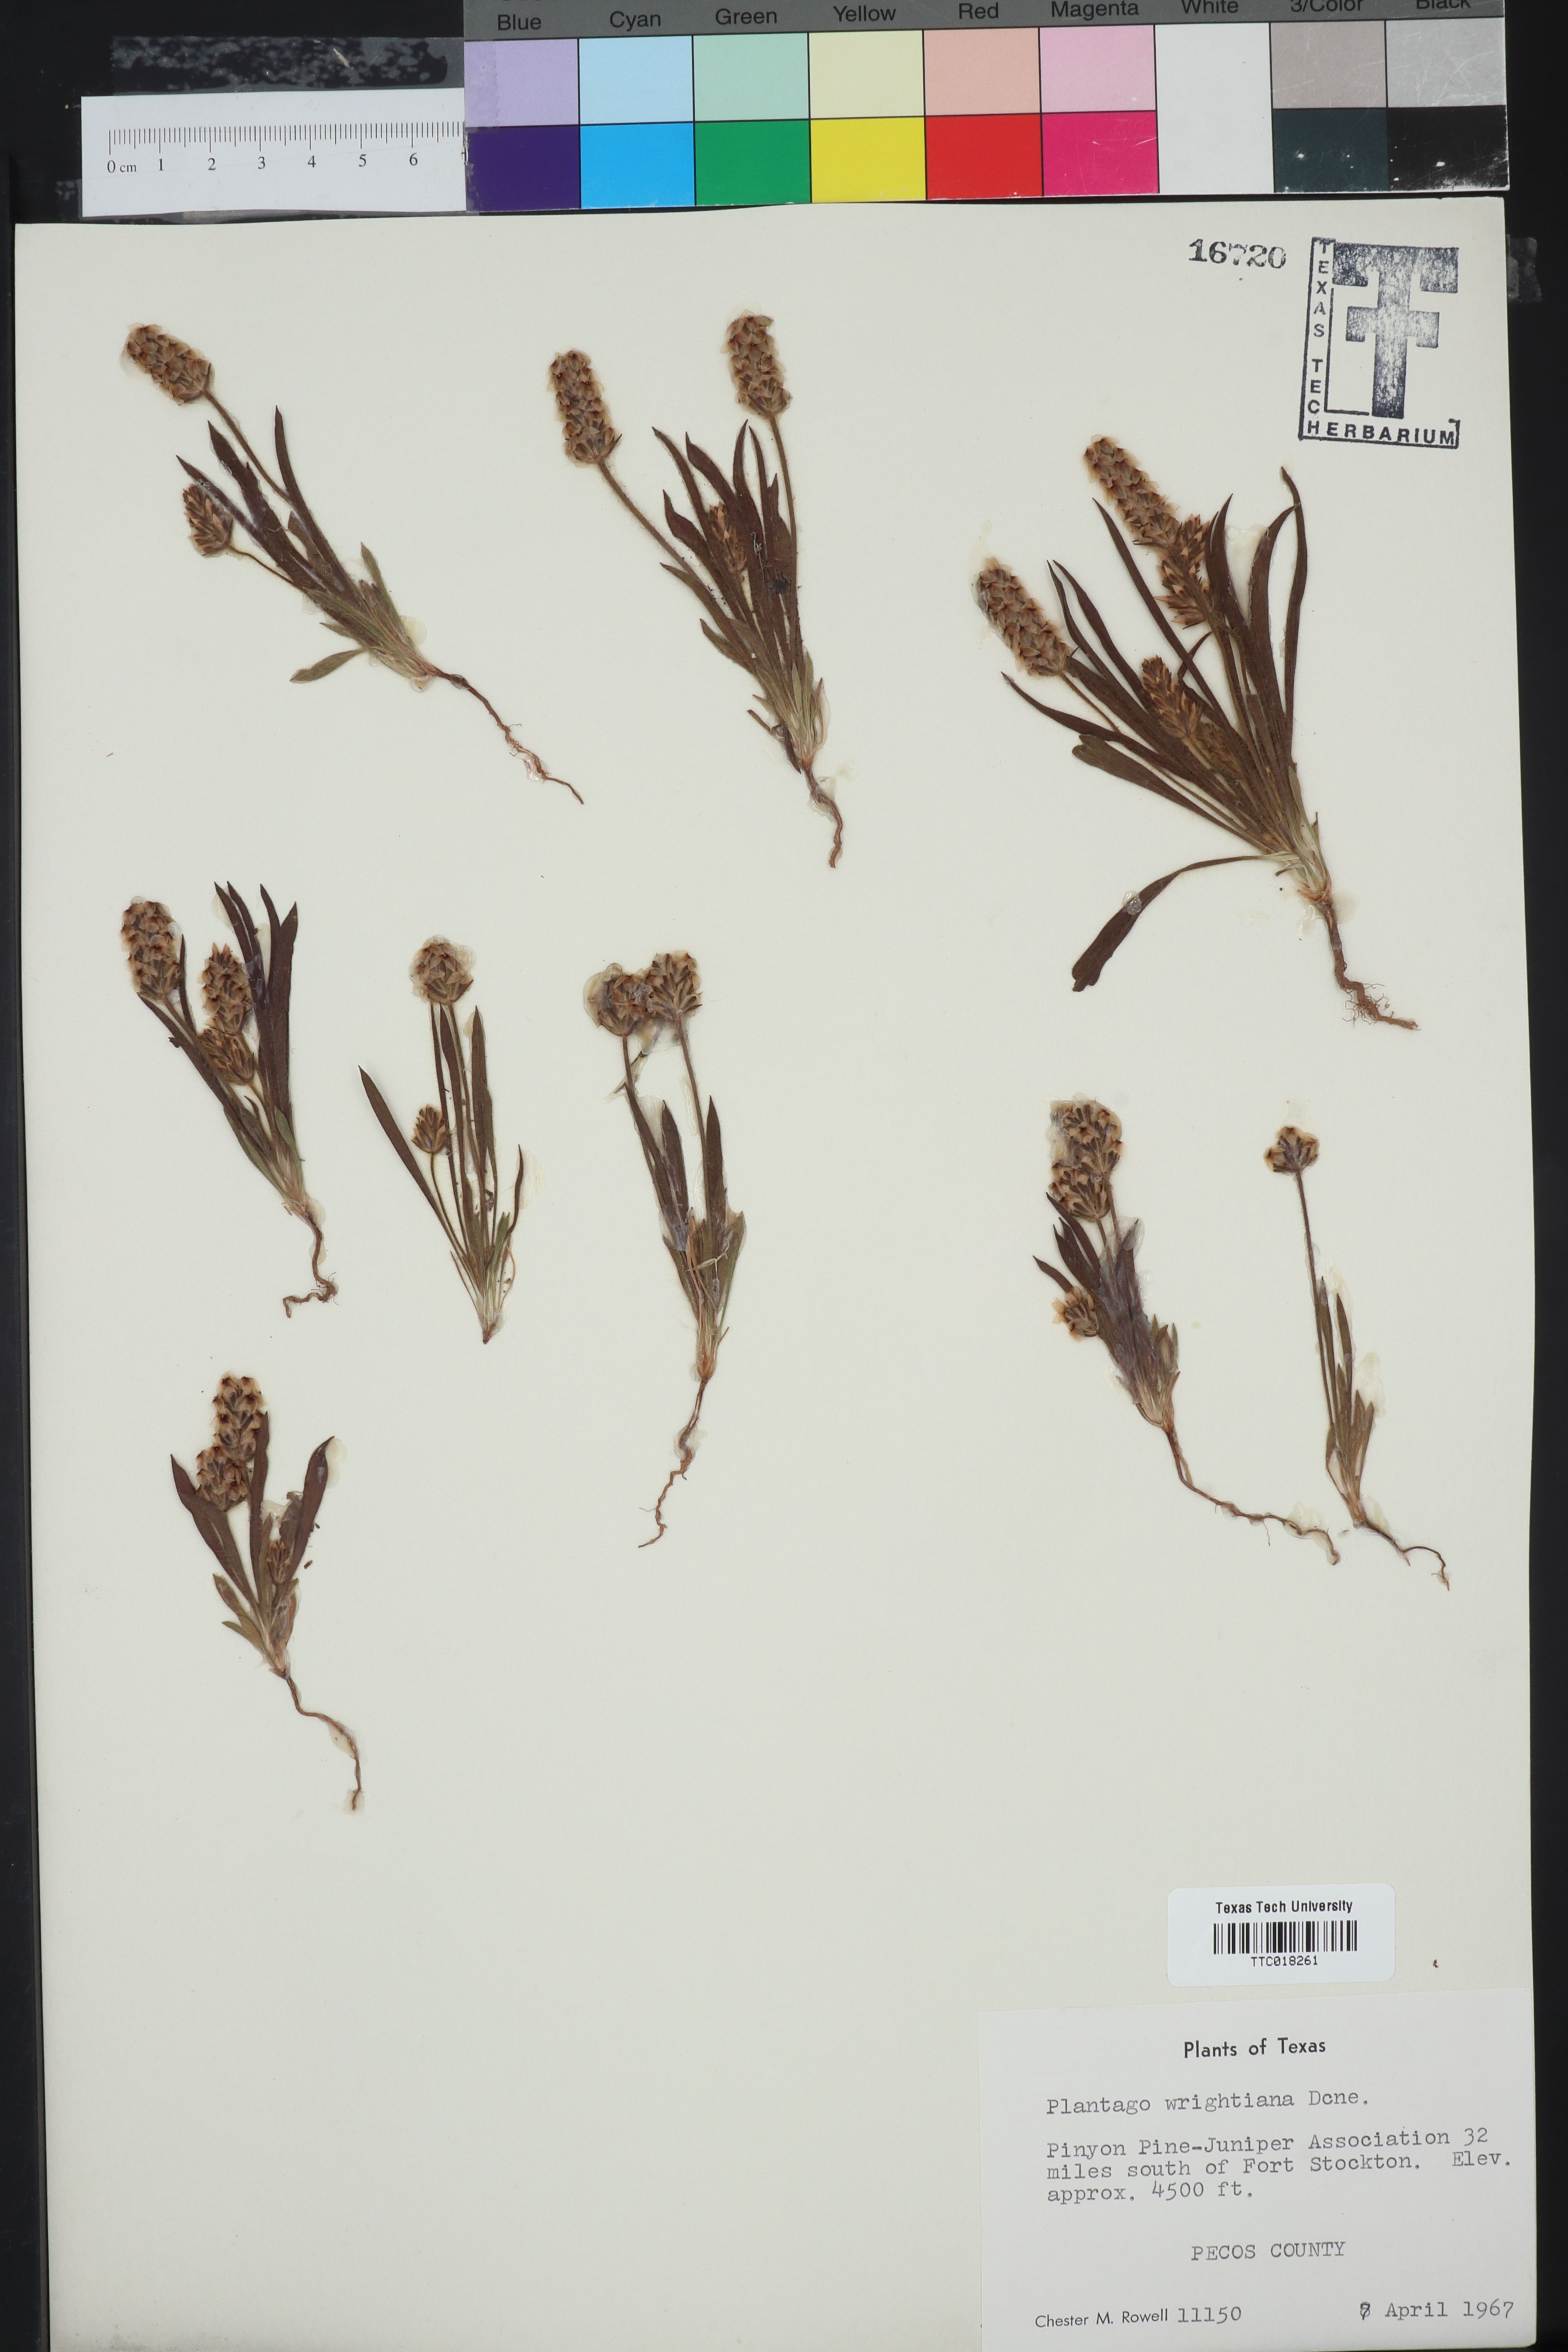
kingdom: Plantae
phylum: Tracheophyta
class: Magnoliopsida
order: Lamiales
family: Plantaginaceae
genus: Plantago
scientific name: Plantago wrightiana
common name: Wright's plantain
